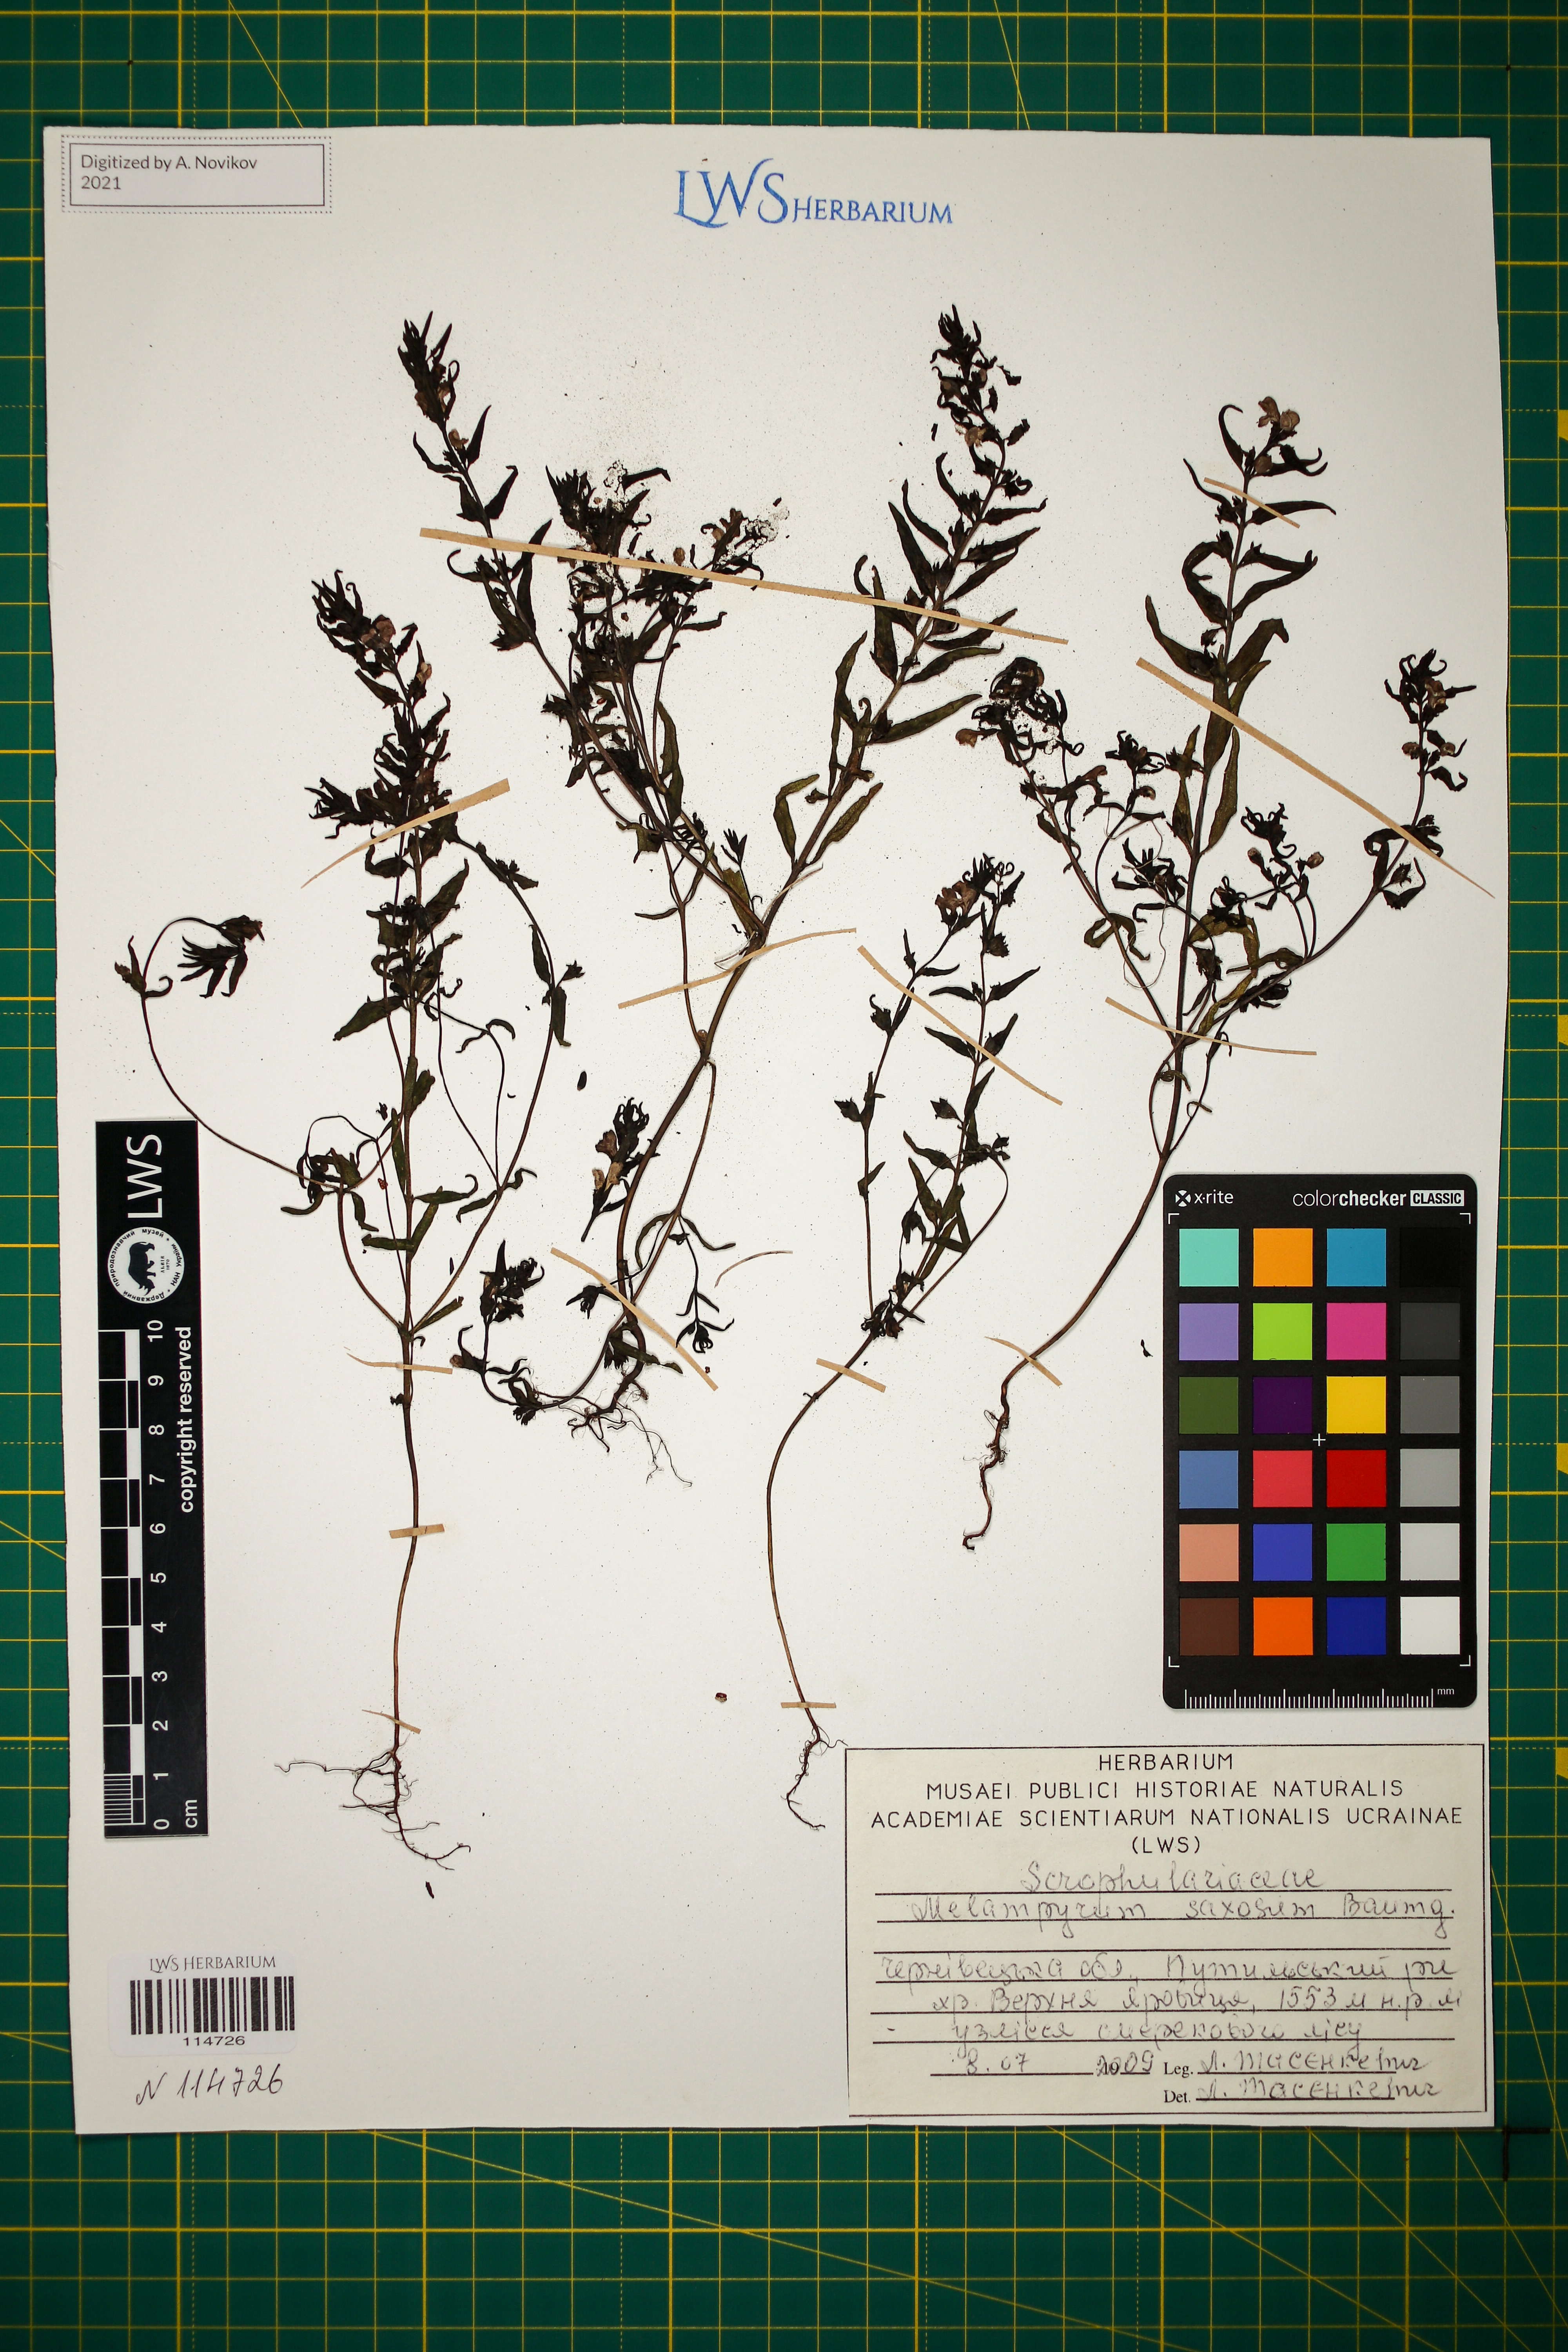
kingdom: Plantae
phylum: Tracheophyta
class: Magnoliopsida
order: Lamiales
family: Orobanchaceae
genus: Melampyrum
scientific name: Melampyrum saxosum
